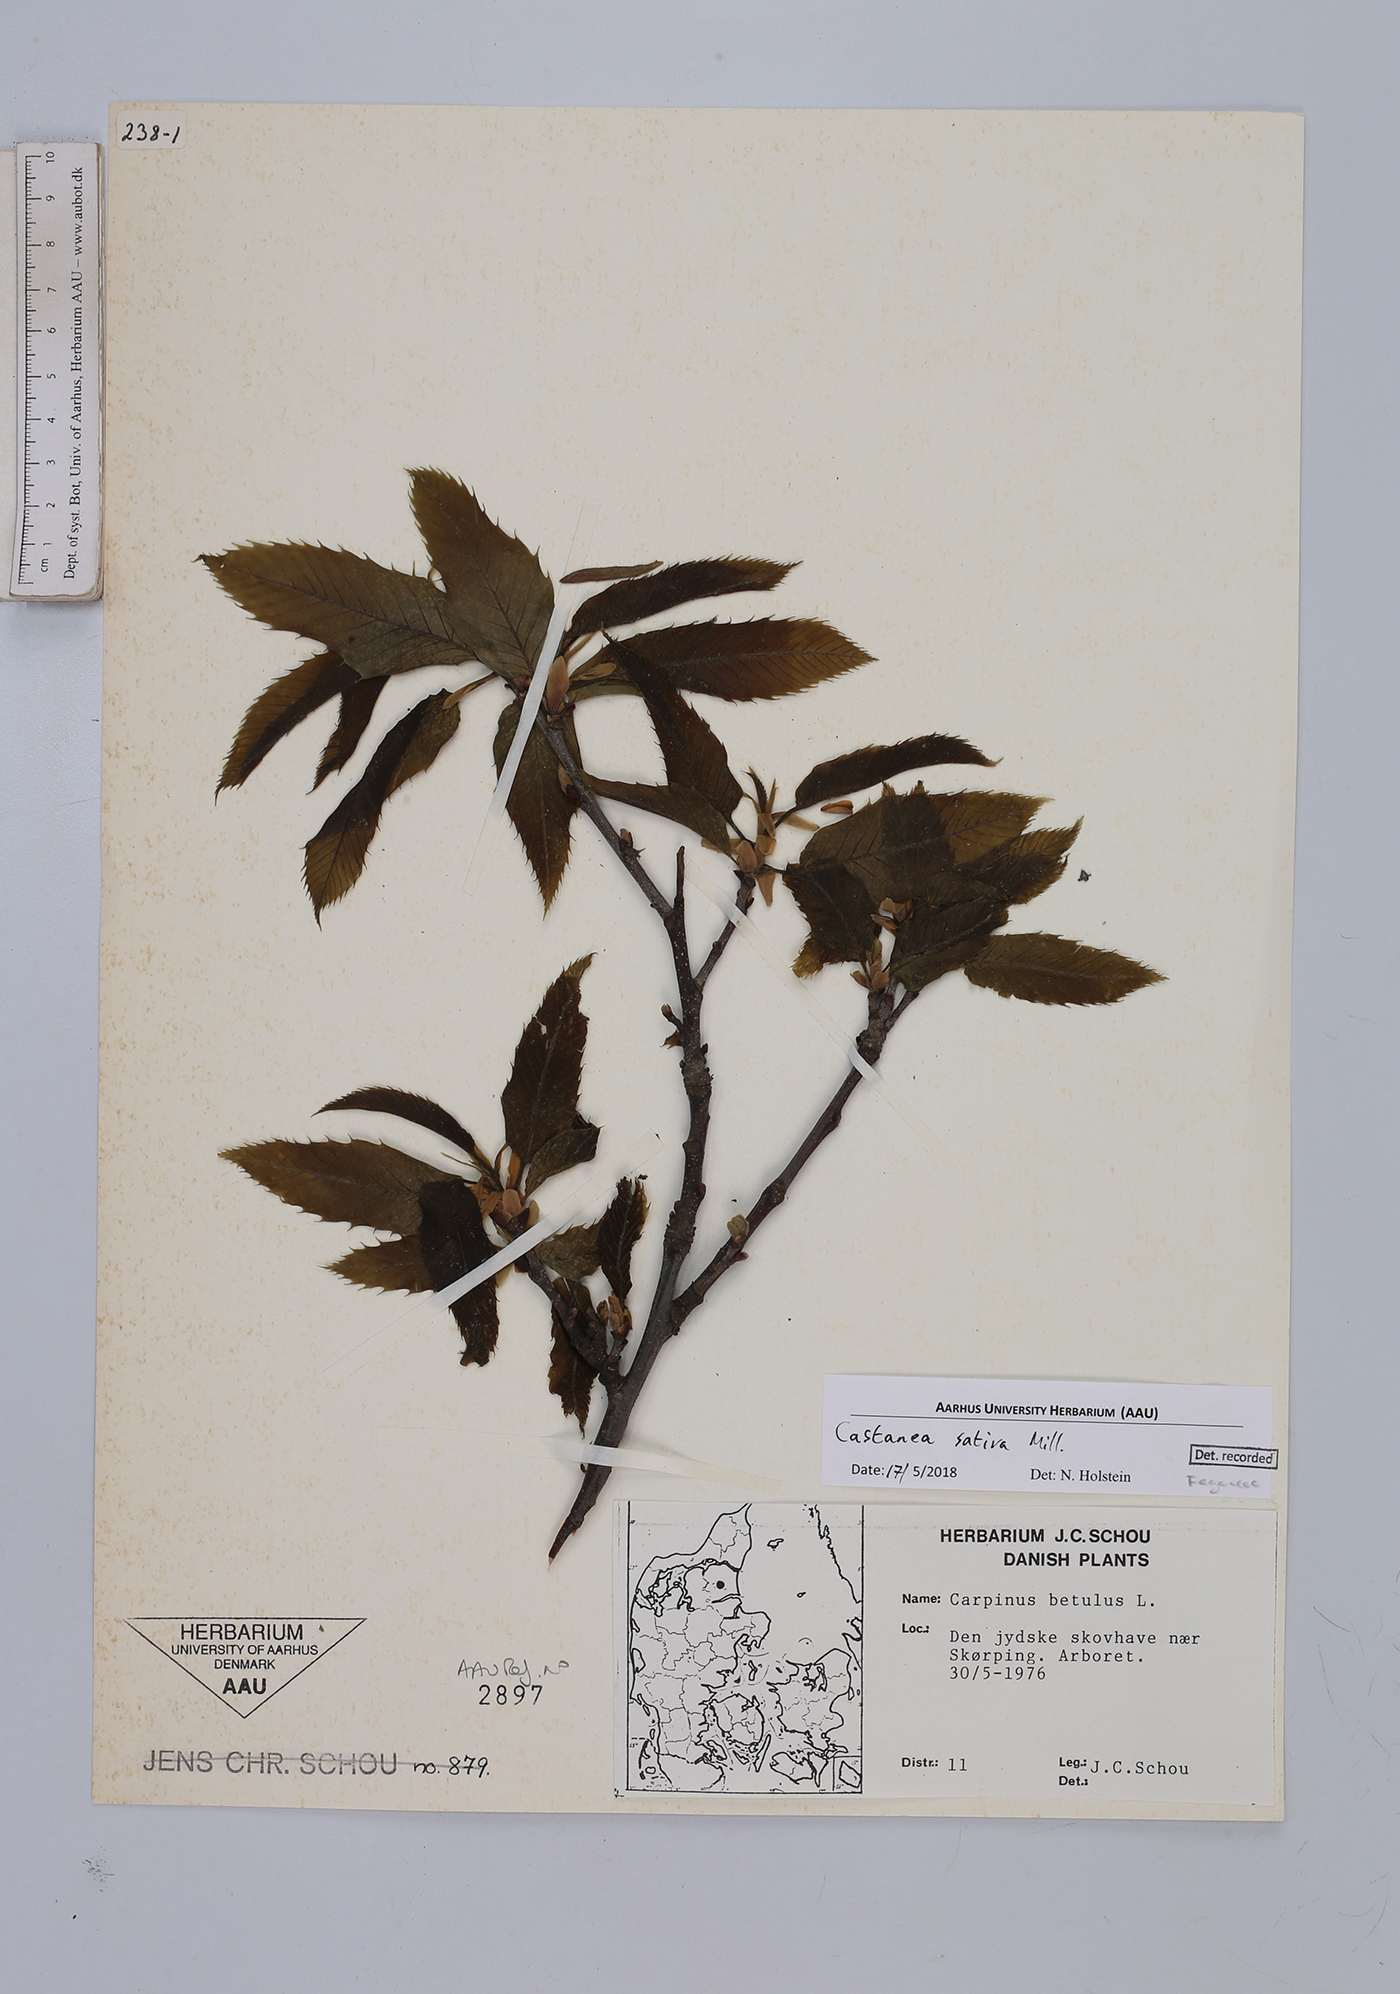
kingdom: Plantae
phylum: Tracheophyta
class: Magnoliopsida
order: Fagales
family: Fagaceae
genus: Castanea
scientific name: Castanea sativa
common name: Sweet chestnut
